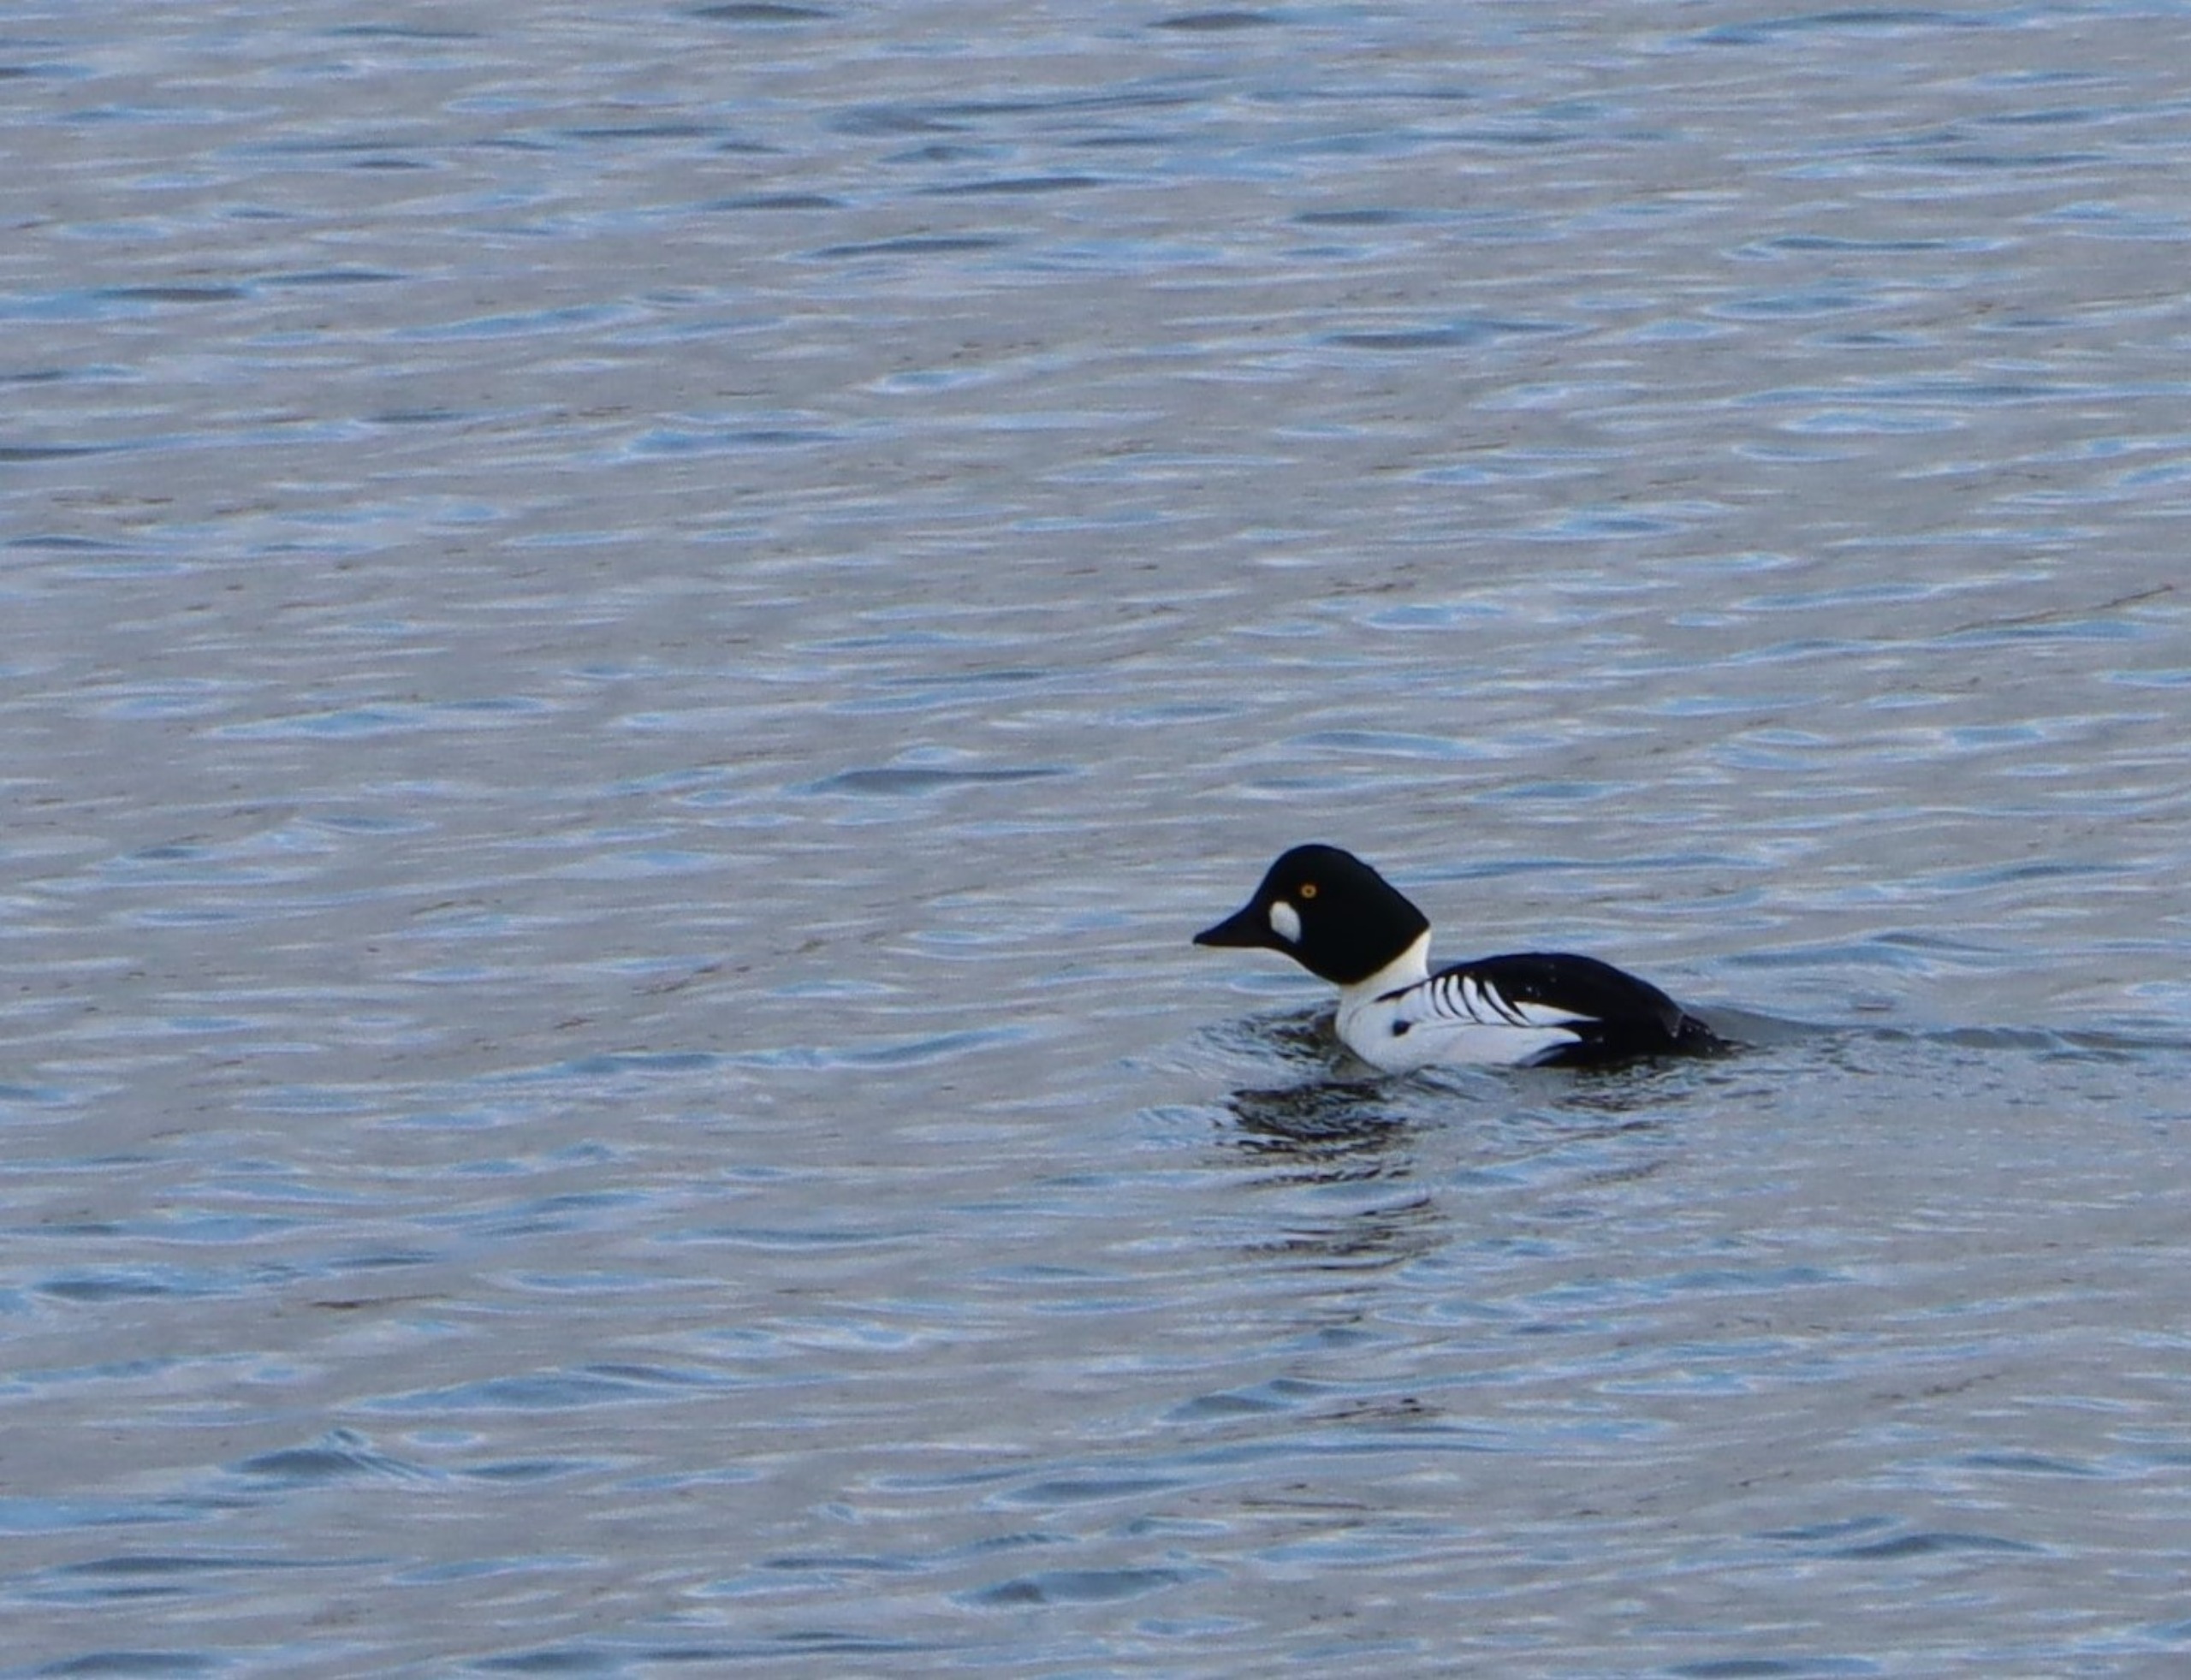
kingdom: Animalia
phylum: Chordata
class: Aves
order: Anseriformes
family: Anatidae
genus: Bucephala
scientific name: Bucephala clangula
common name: Hvinand
